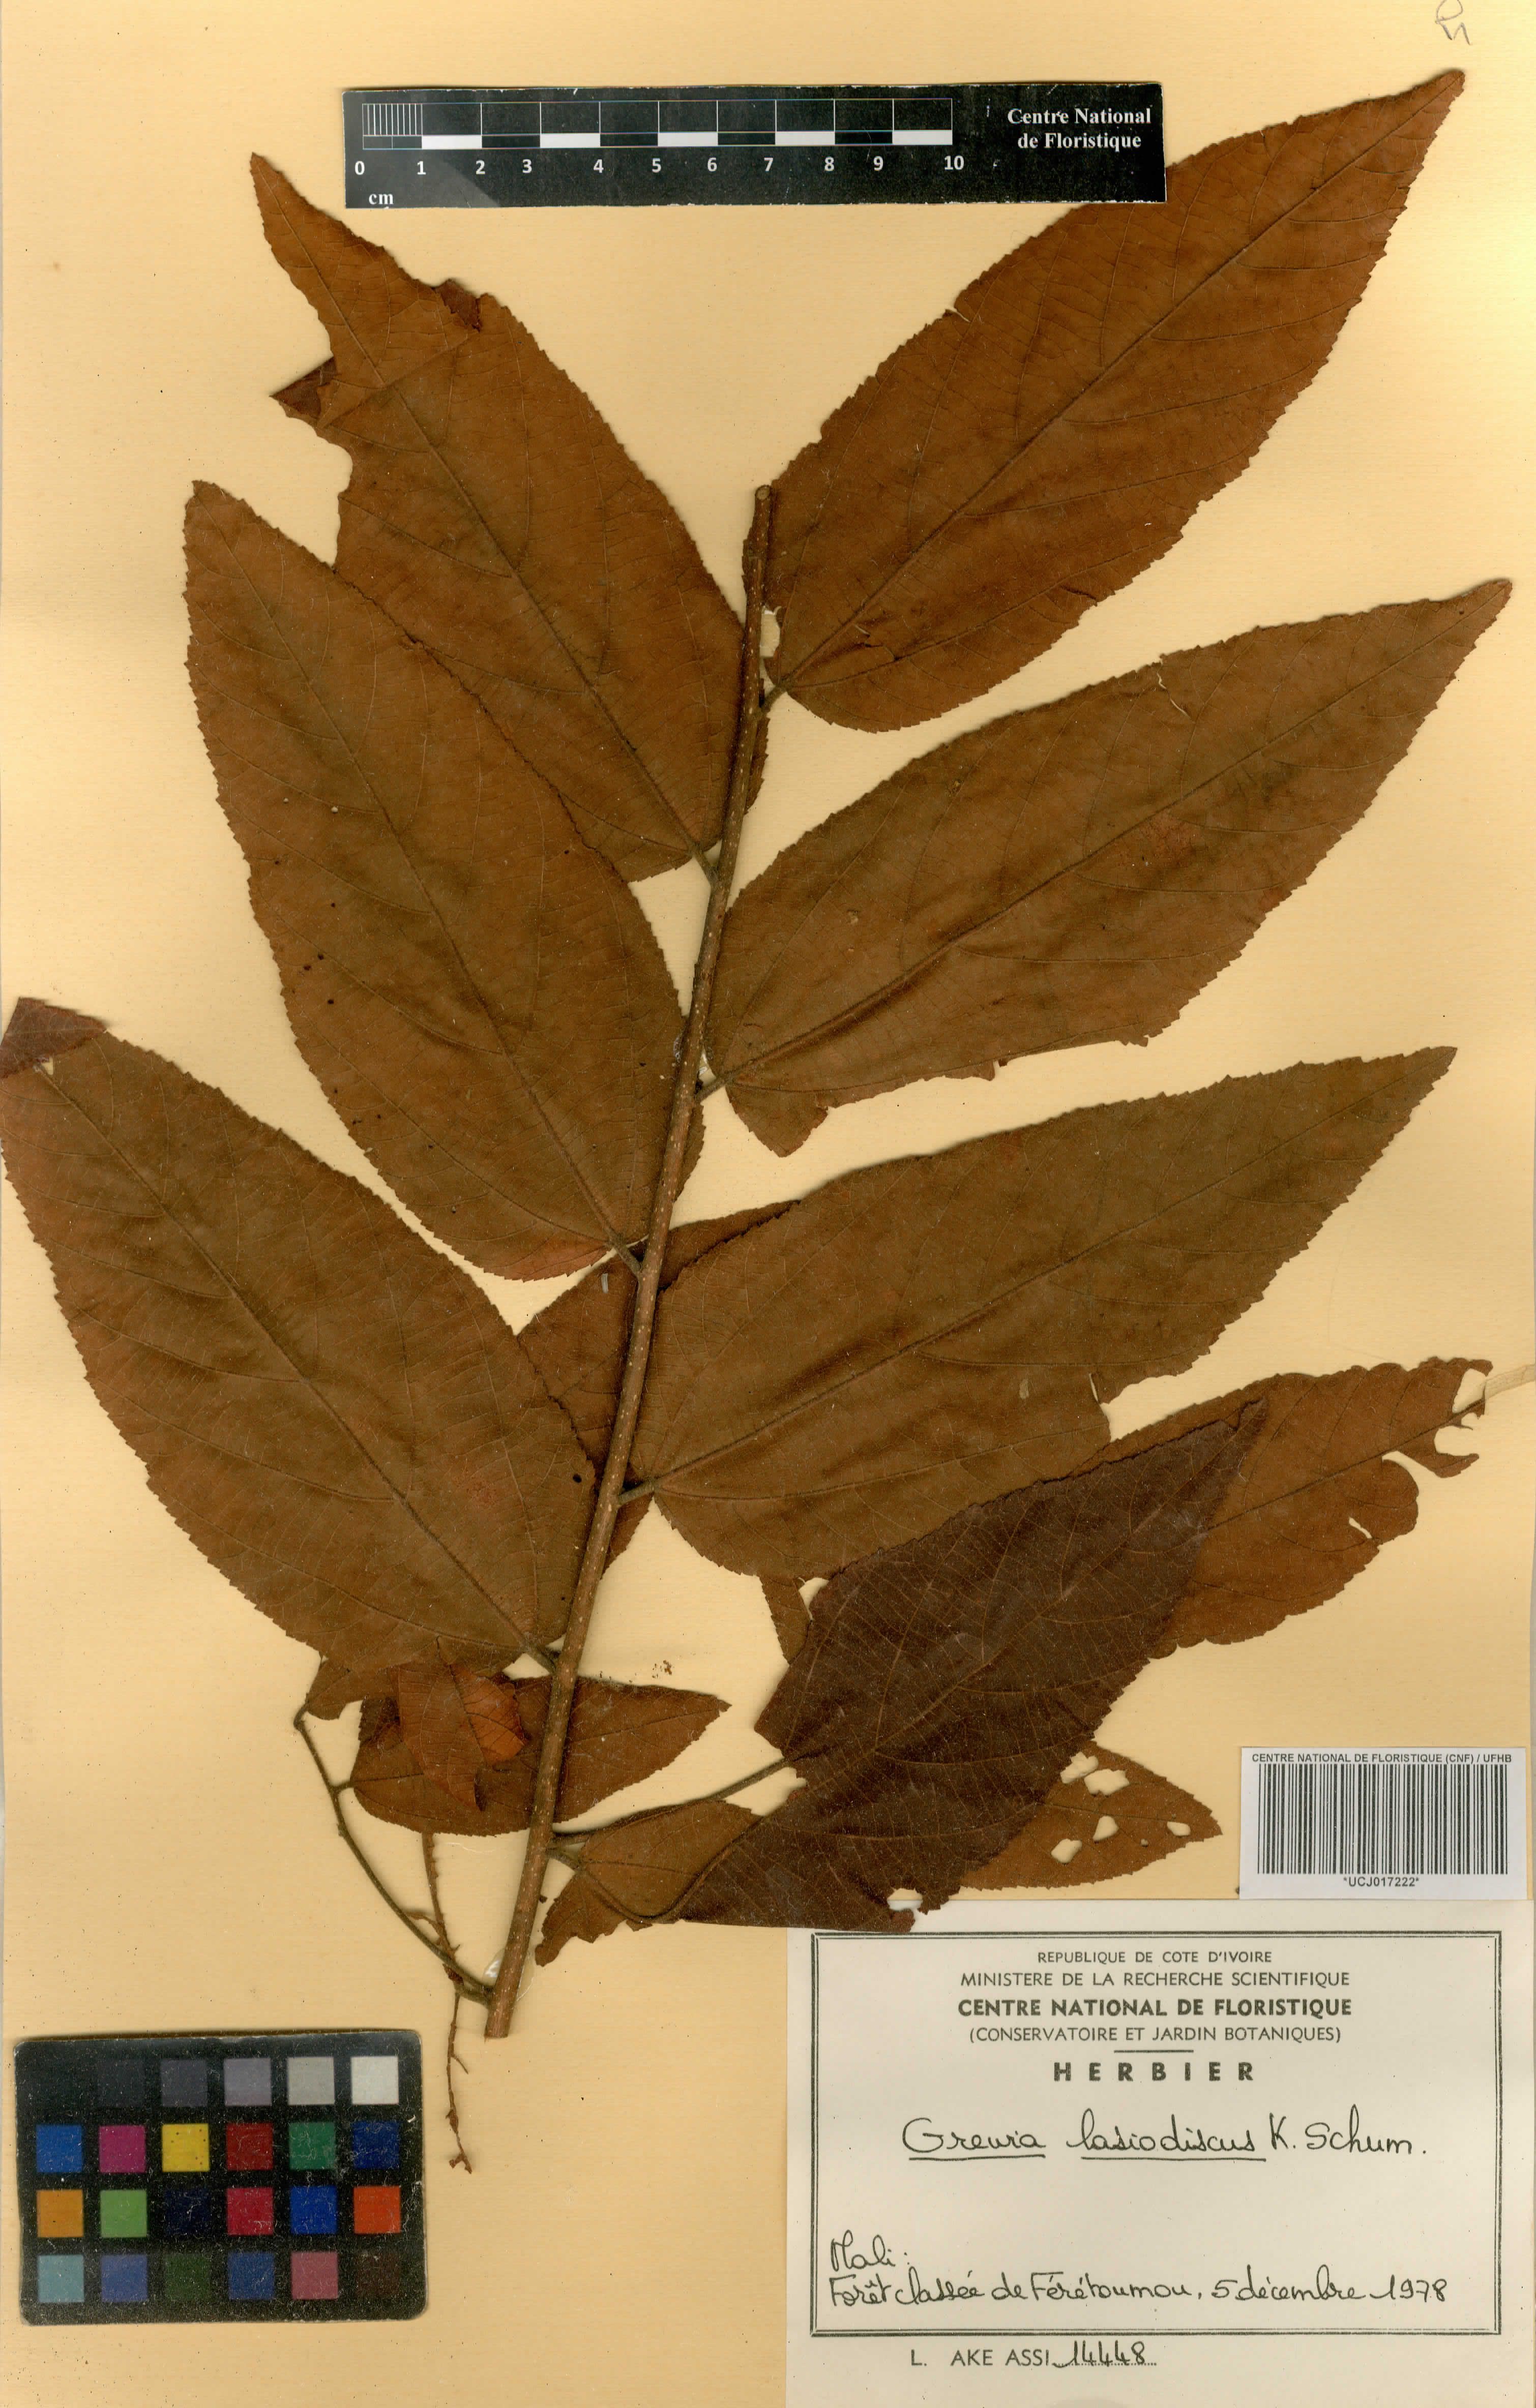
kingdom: Plantae
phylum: Tracheophyta
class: Magnoliopsida
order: Malvales
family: Malvaceae
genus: Grewia
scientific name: Grewia lasiodiscus
